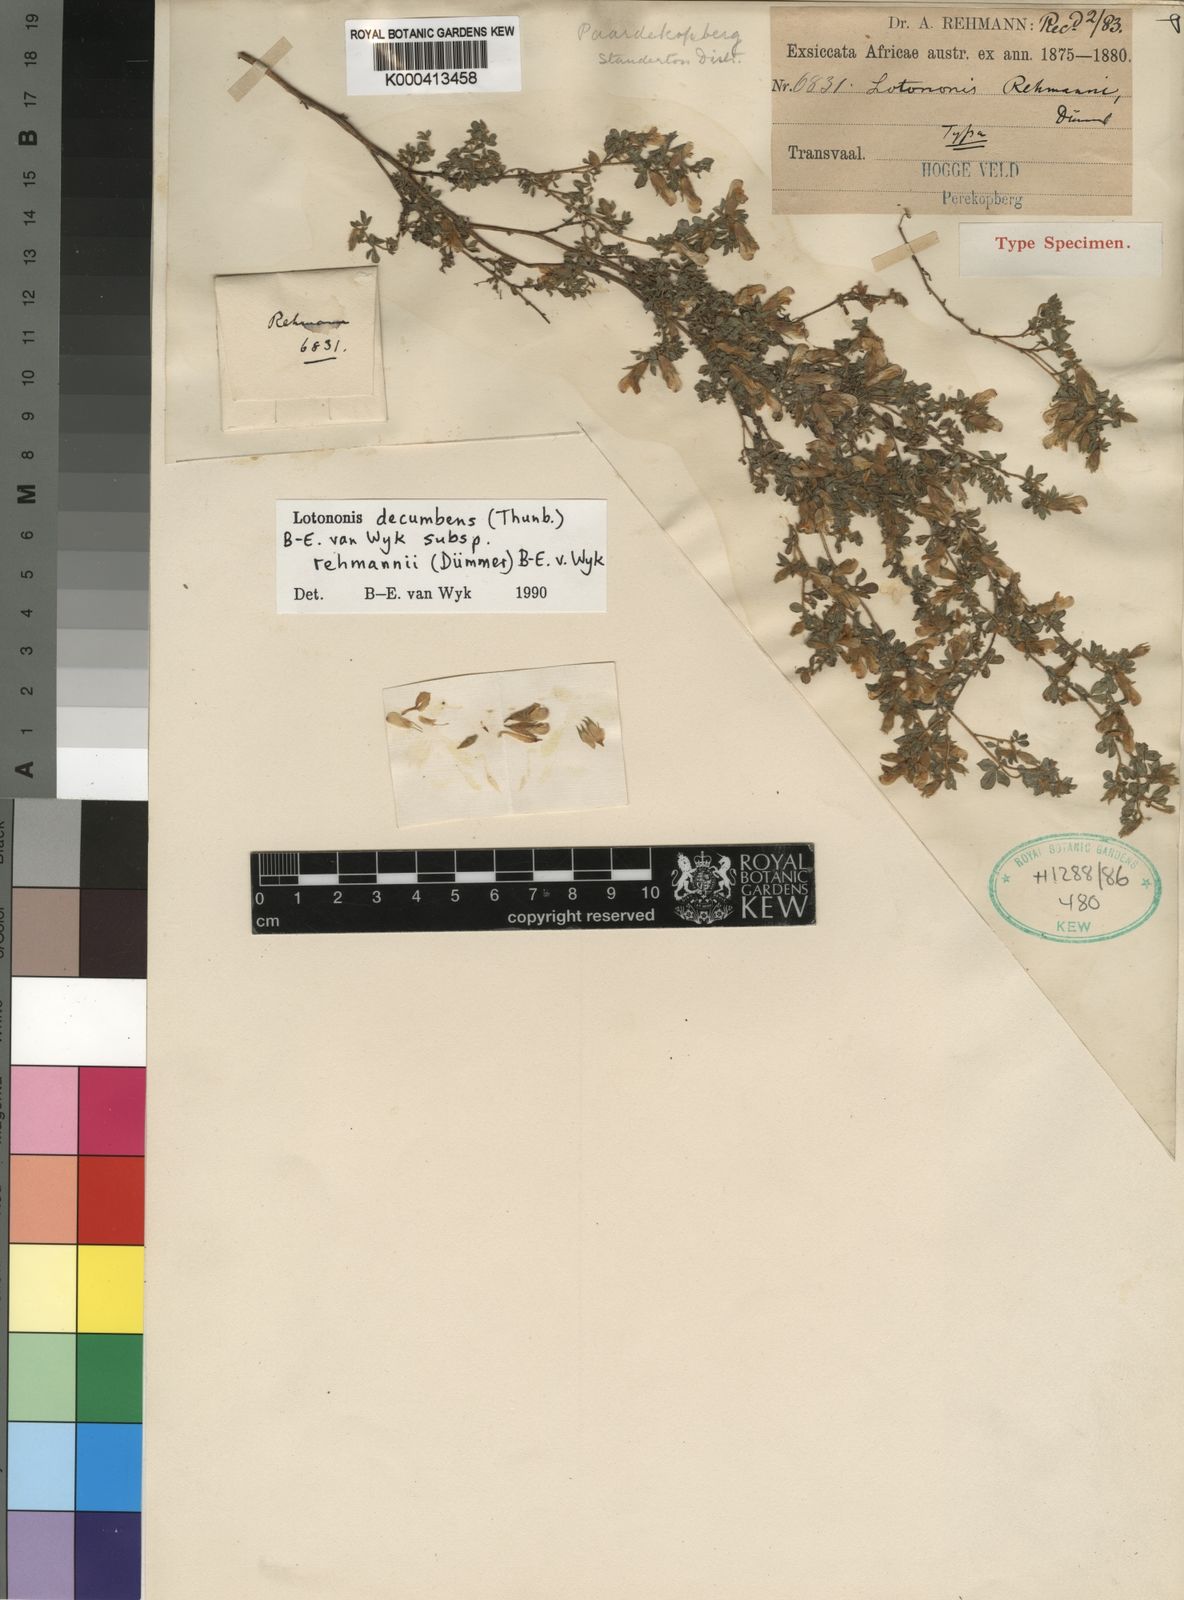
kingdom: Plantae
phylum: Tracheophyta
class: Magnoliopsida
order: Fabales
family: Fabaceae
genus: Leobordea
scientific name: Leobordea decumbens
